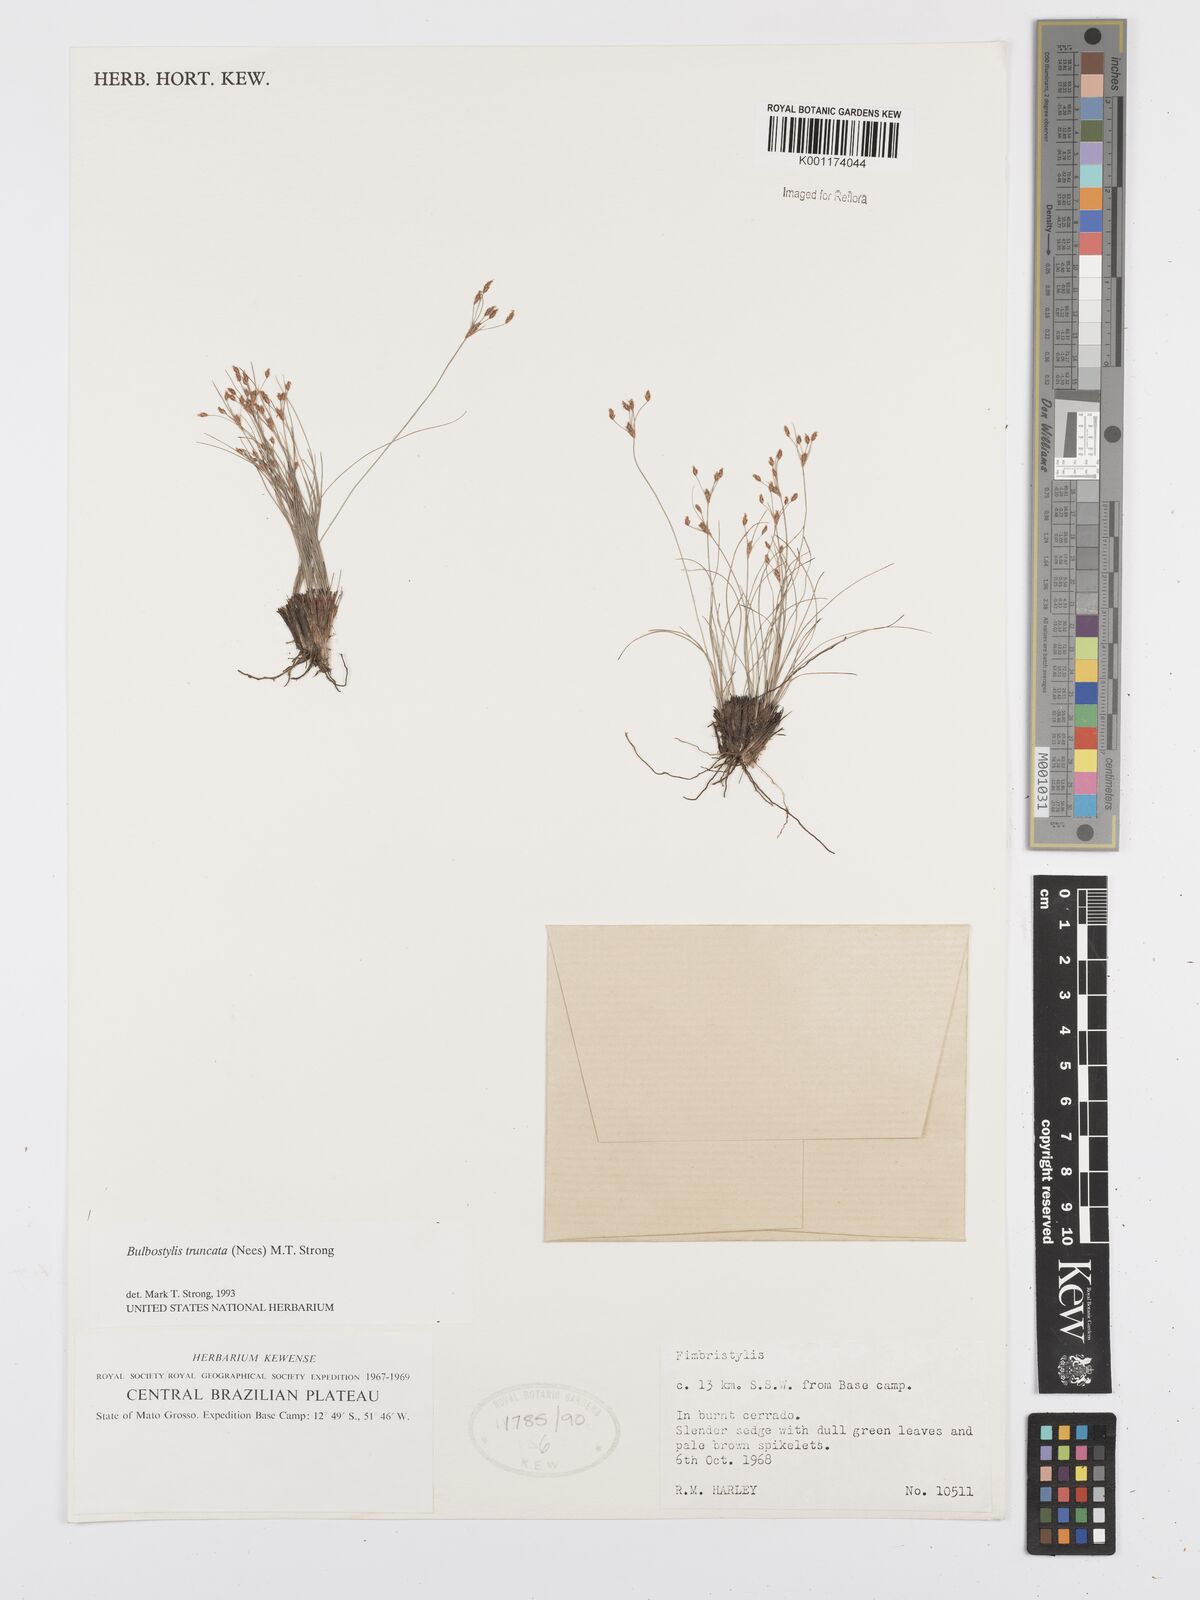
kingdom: Plantae
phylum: Tracheophyta
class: Liliopsida
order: Poales
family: Cyperaceae
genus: Bulbostylis
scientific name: Bulbostylis truncata
